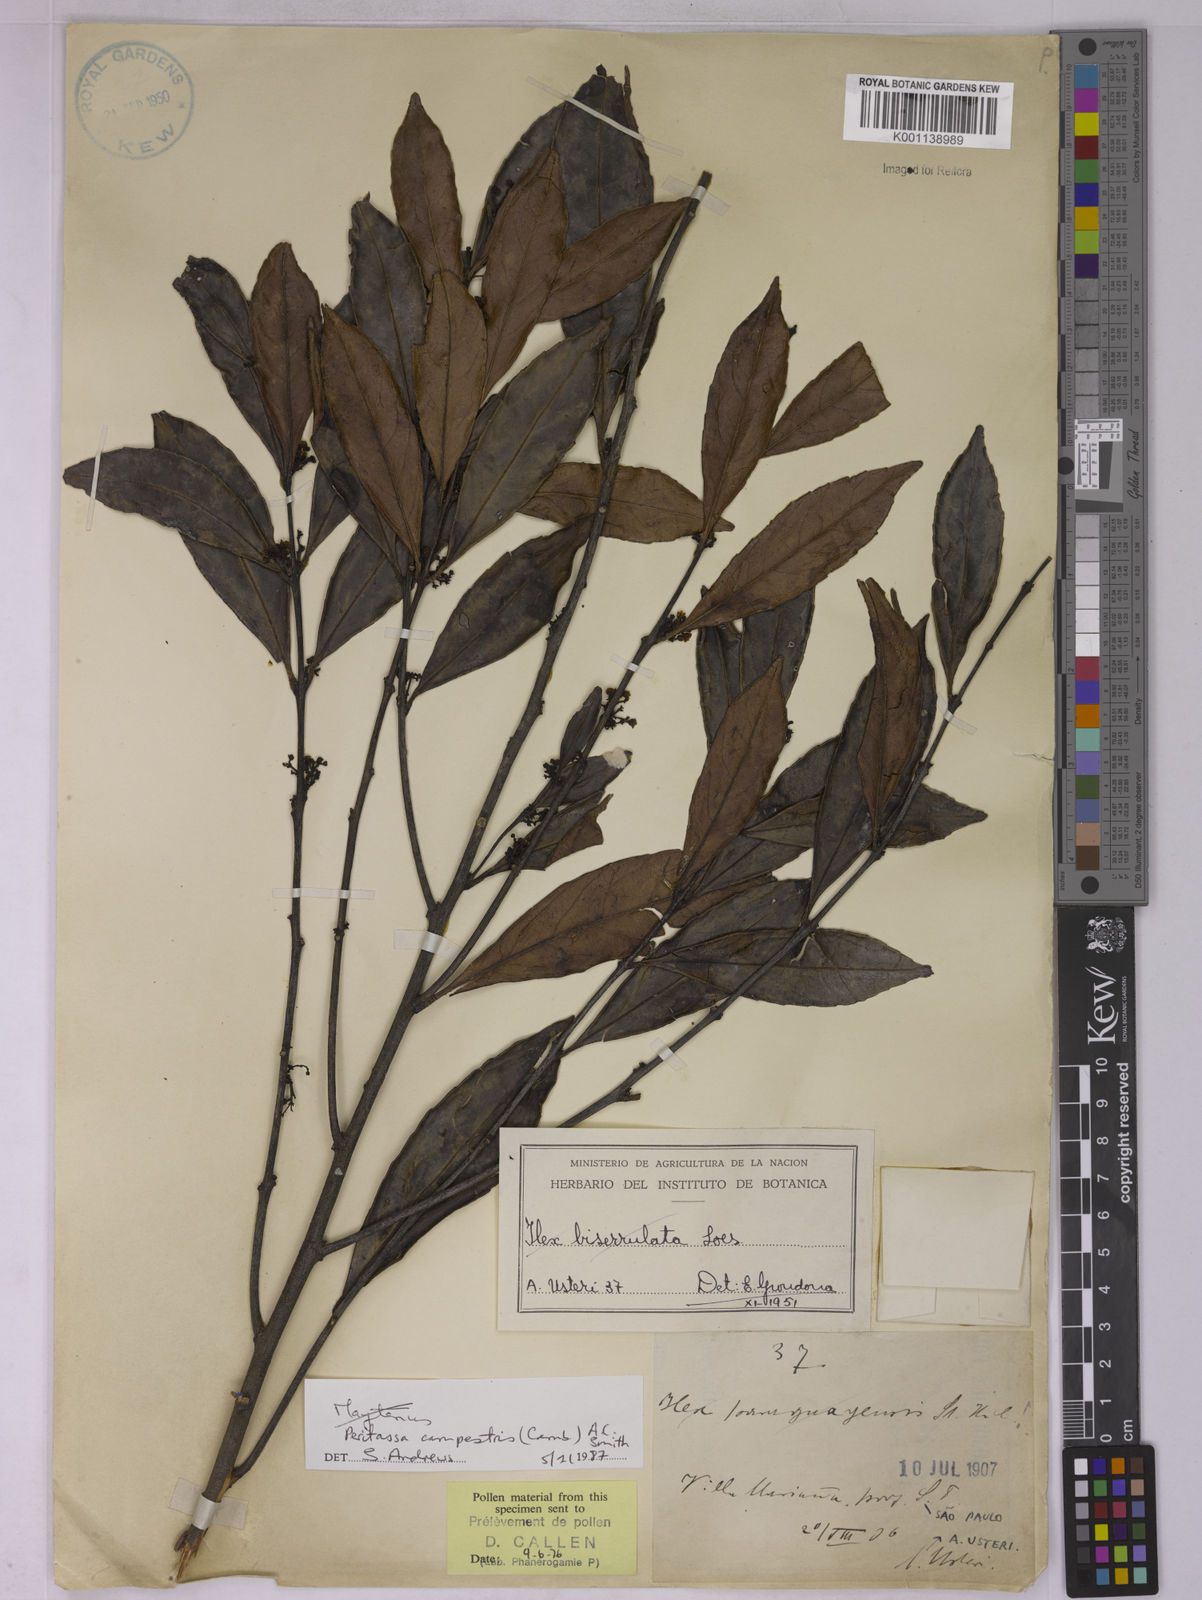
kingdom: Plantae
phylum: Tracheophyta
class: Magnoliopsida
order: Celastrales
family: Celastraceae
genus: Peritassa
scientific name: Peritassa campestris
